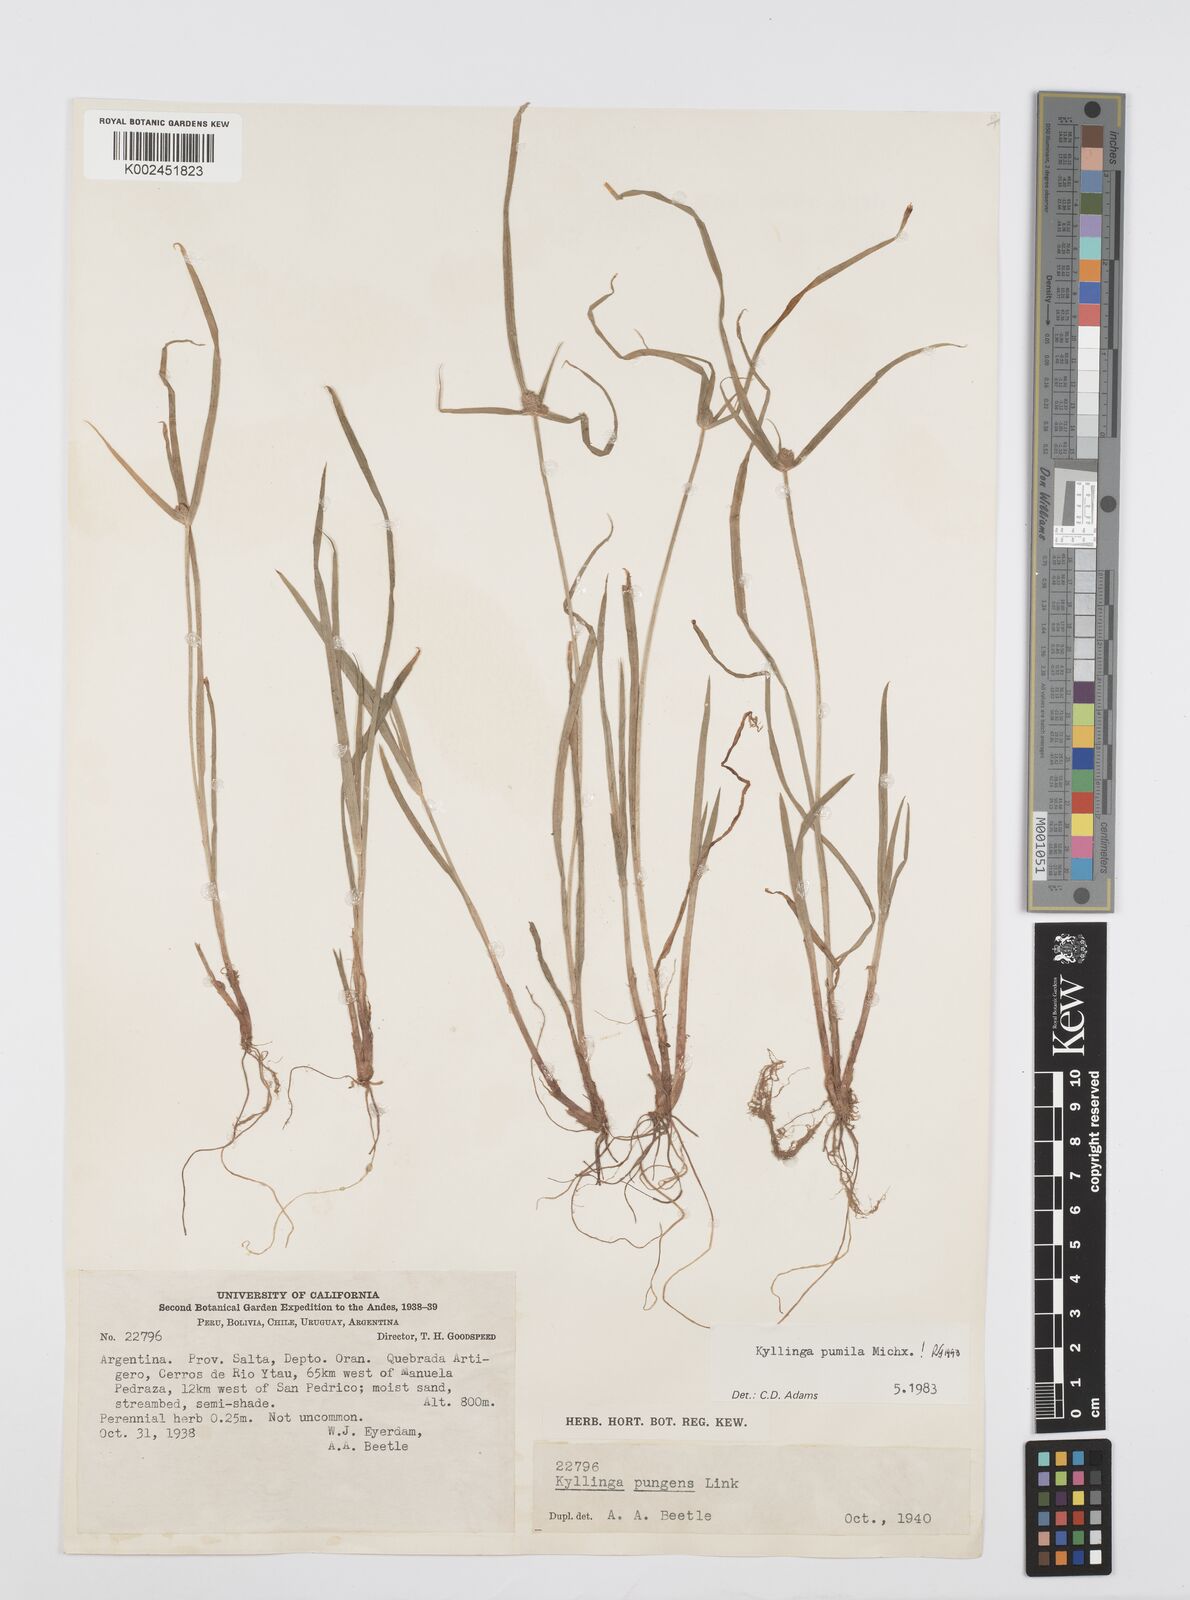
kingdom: Plantae
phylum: Tracheophyta
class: Liliopsida
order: Poales
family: Cyperaceae
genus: Cyperus
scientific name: Cyperus pumilus
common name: Low flatsedge
